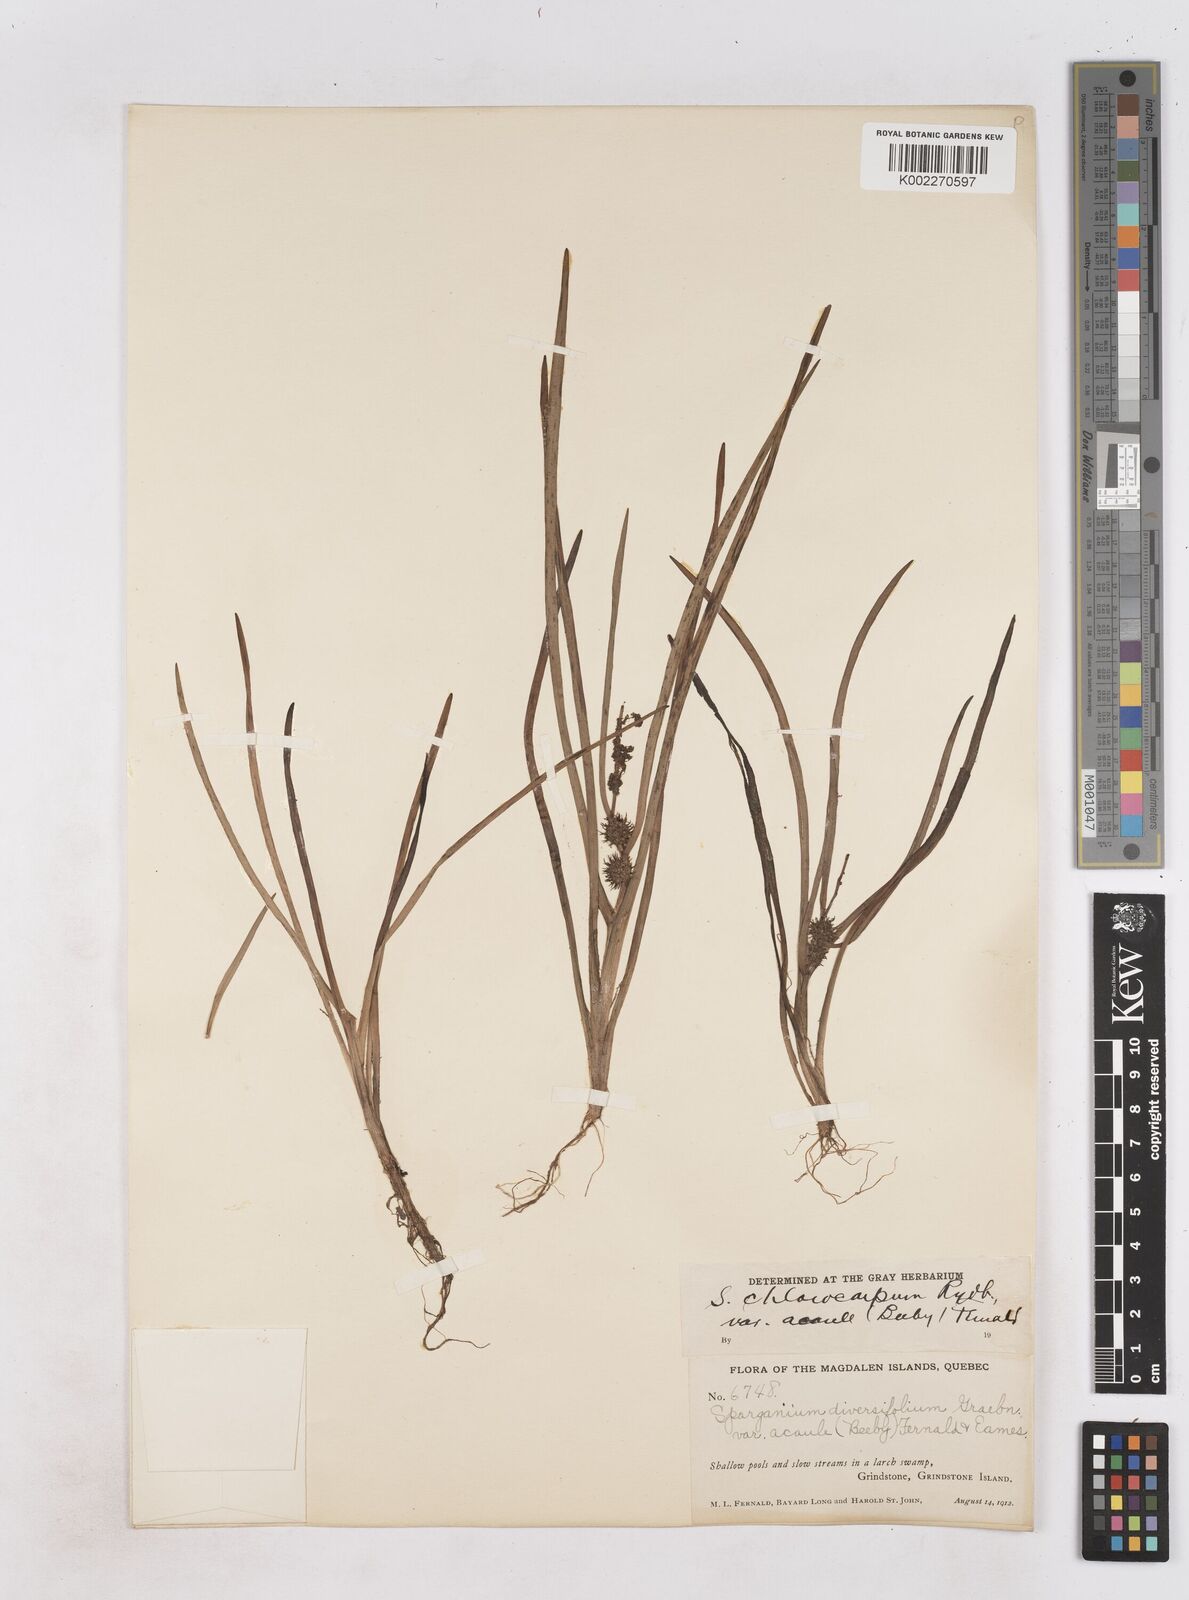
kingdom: Plantae
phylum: Tracheophyta
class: Liliopsida
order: Poales
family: Typhaceae
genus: Sparganium
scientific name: Sparganium emersum
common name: Unbranched bur-reed
